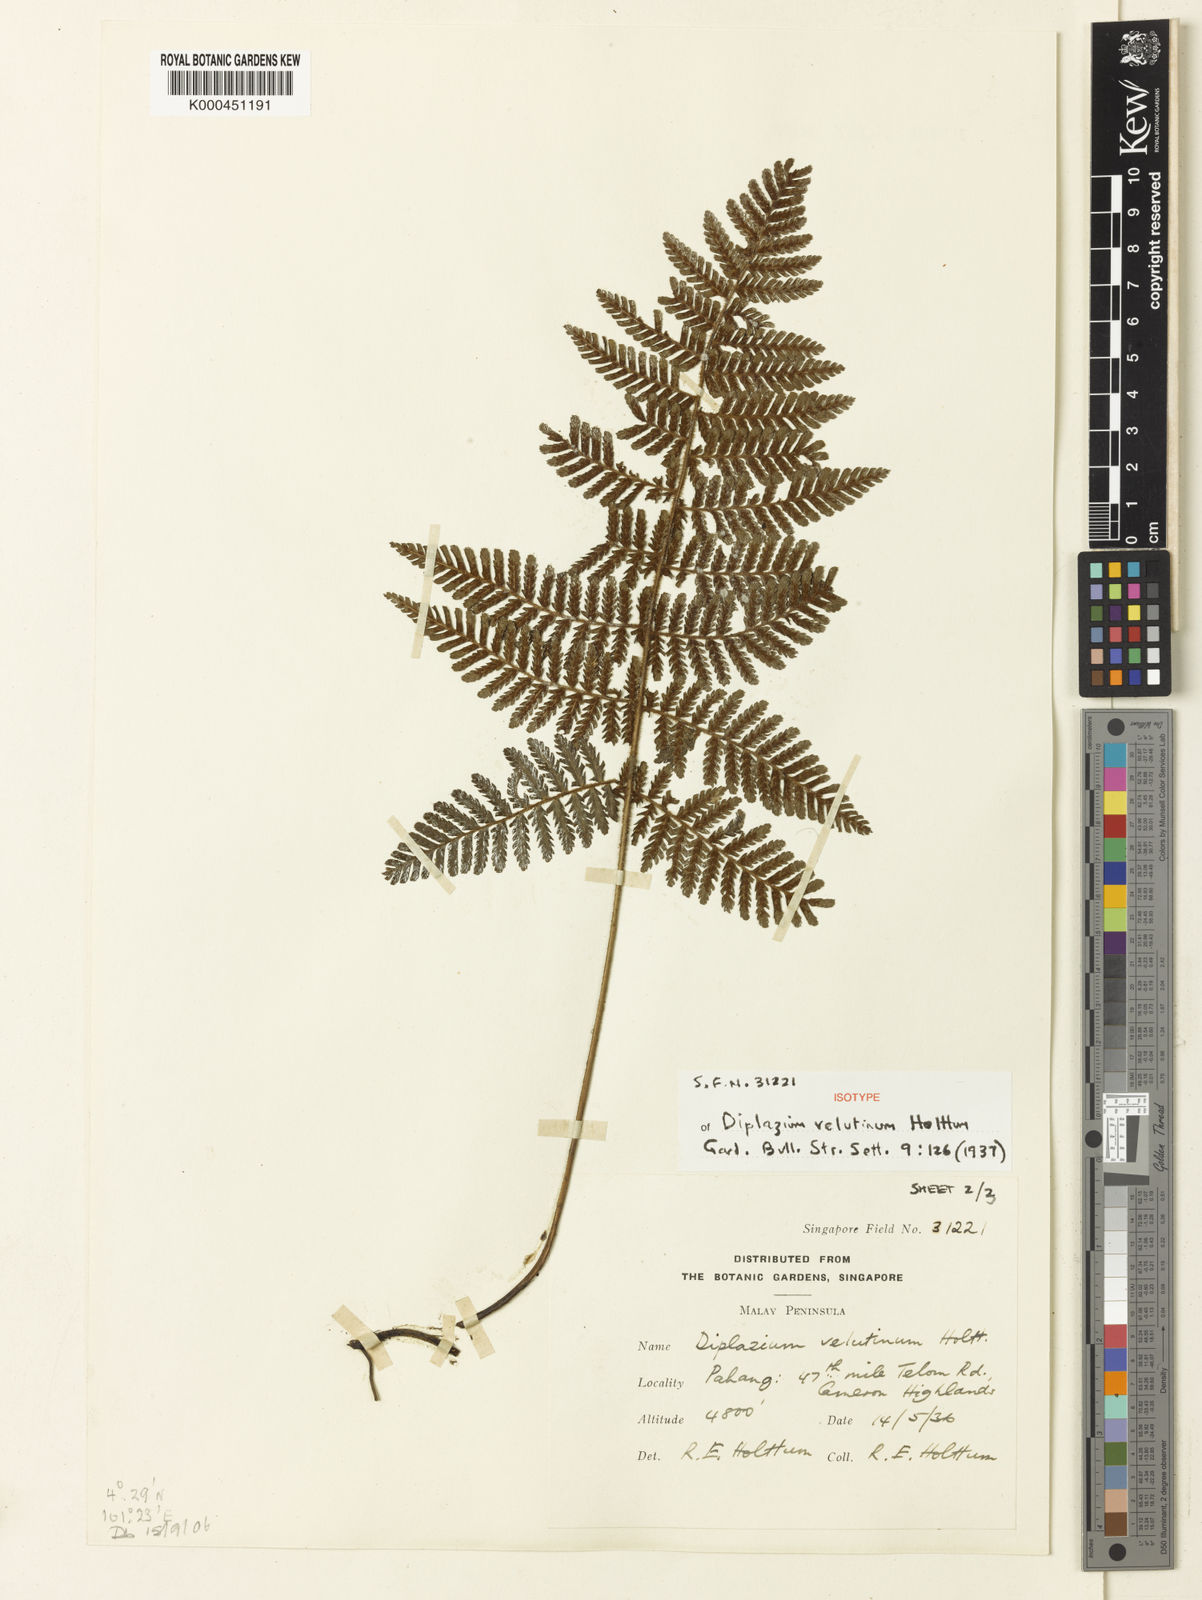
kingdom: Plantae
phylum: Tracheophyta
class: Polypodiopsida
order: Polypodiales
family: Athyriaceae
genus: Diplazium
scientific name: Diplazium velutinum
